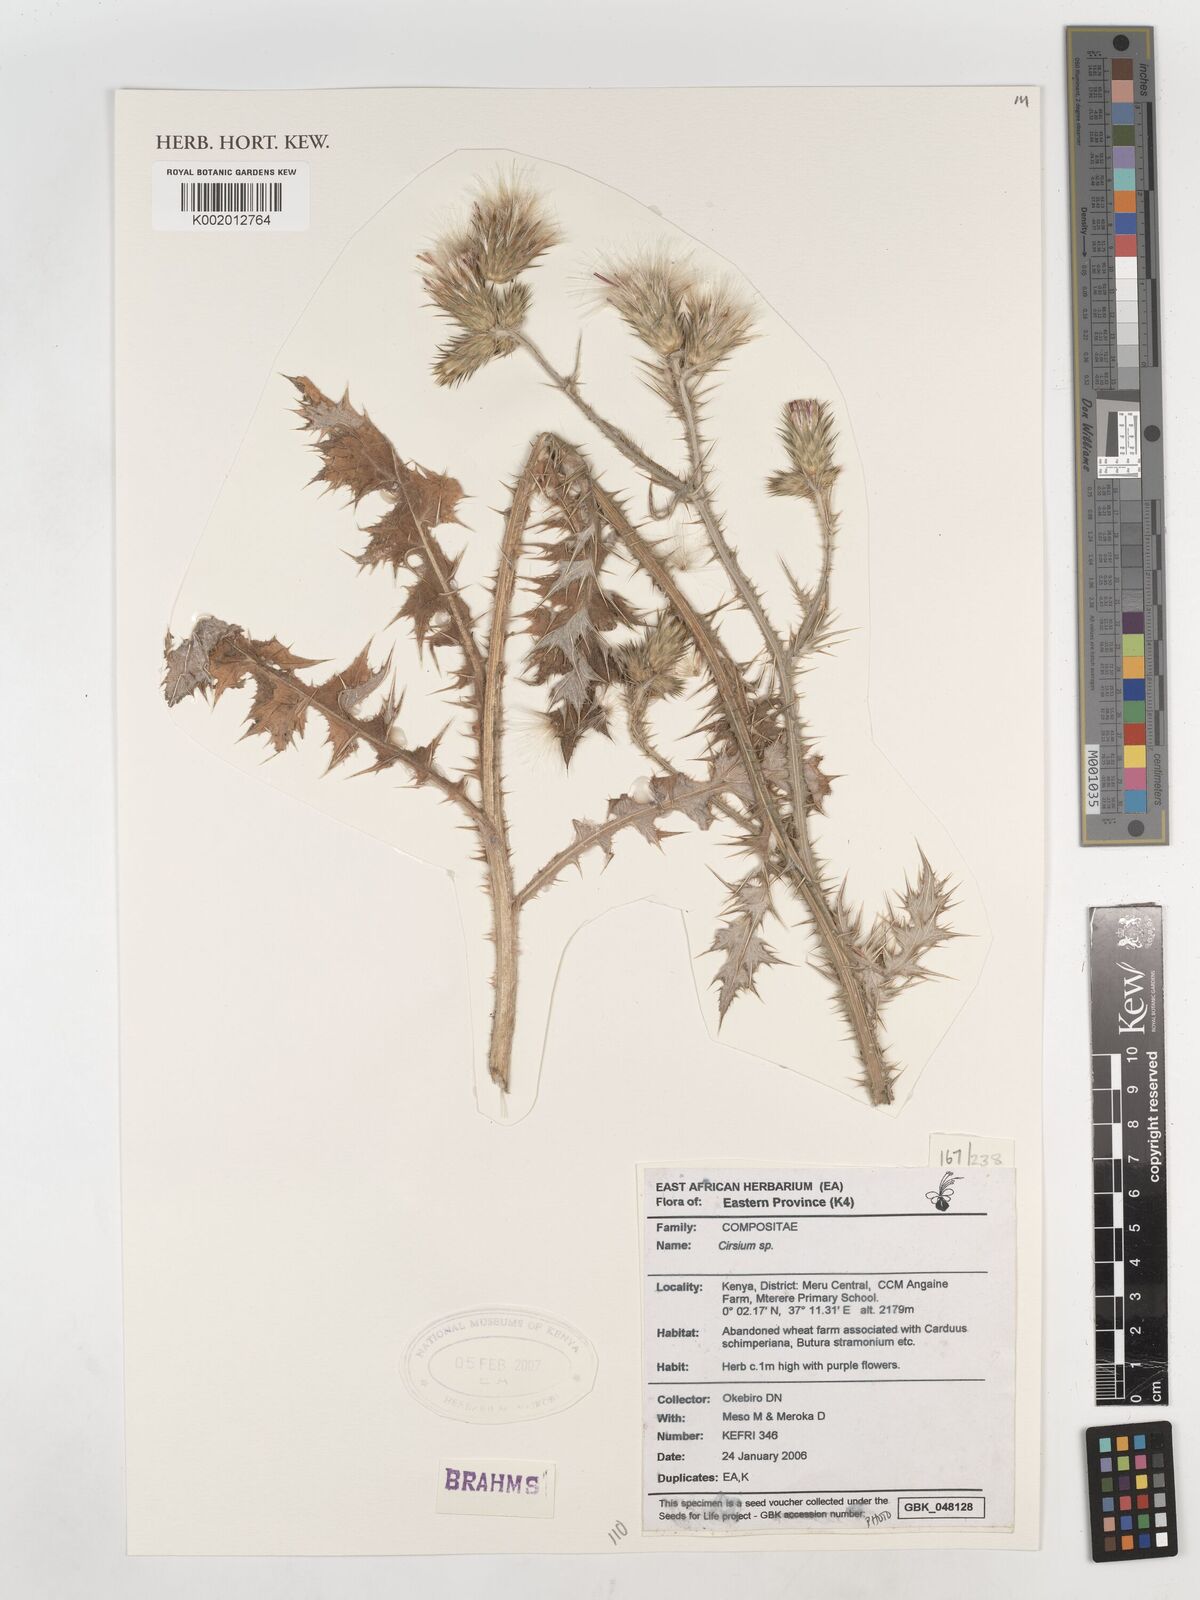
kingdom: Plantae
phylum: Tracheophyta
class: Magnoliopsida
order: Asterales
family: Asteraceae
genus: Cirsium
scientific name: Cirsium
